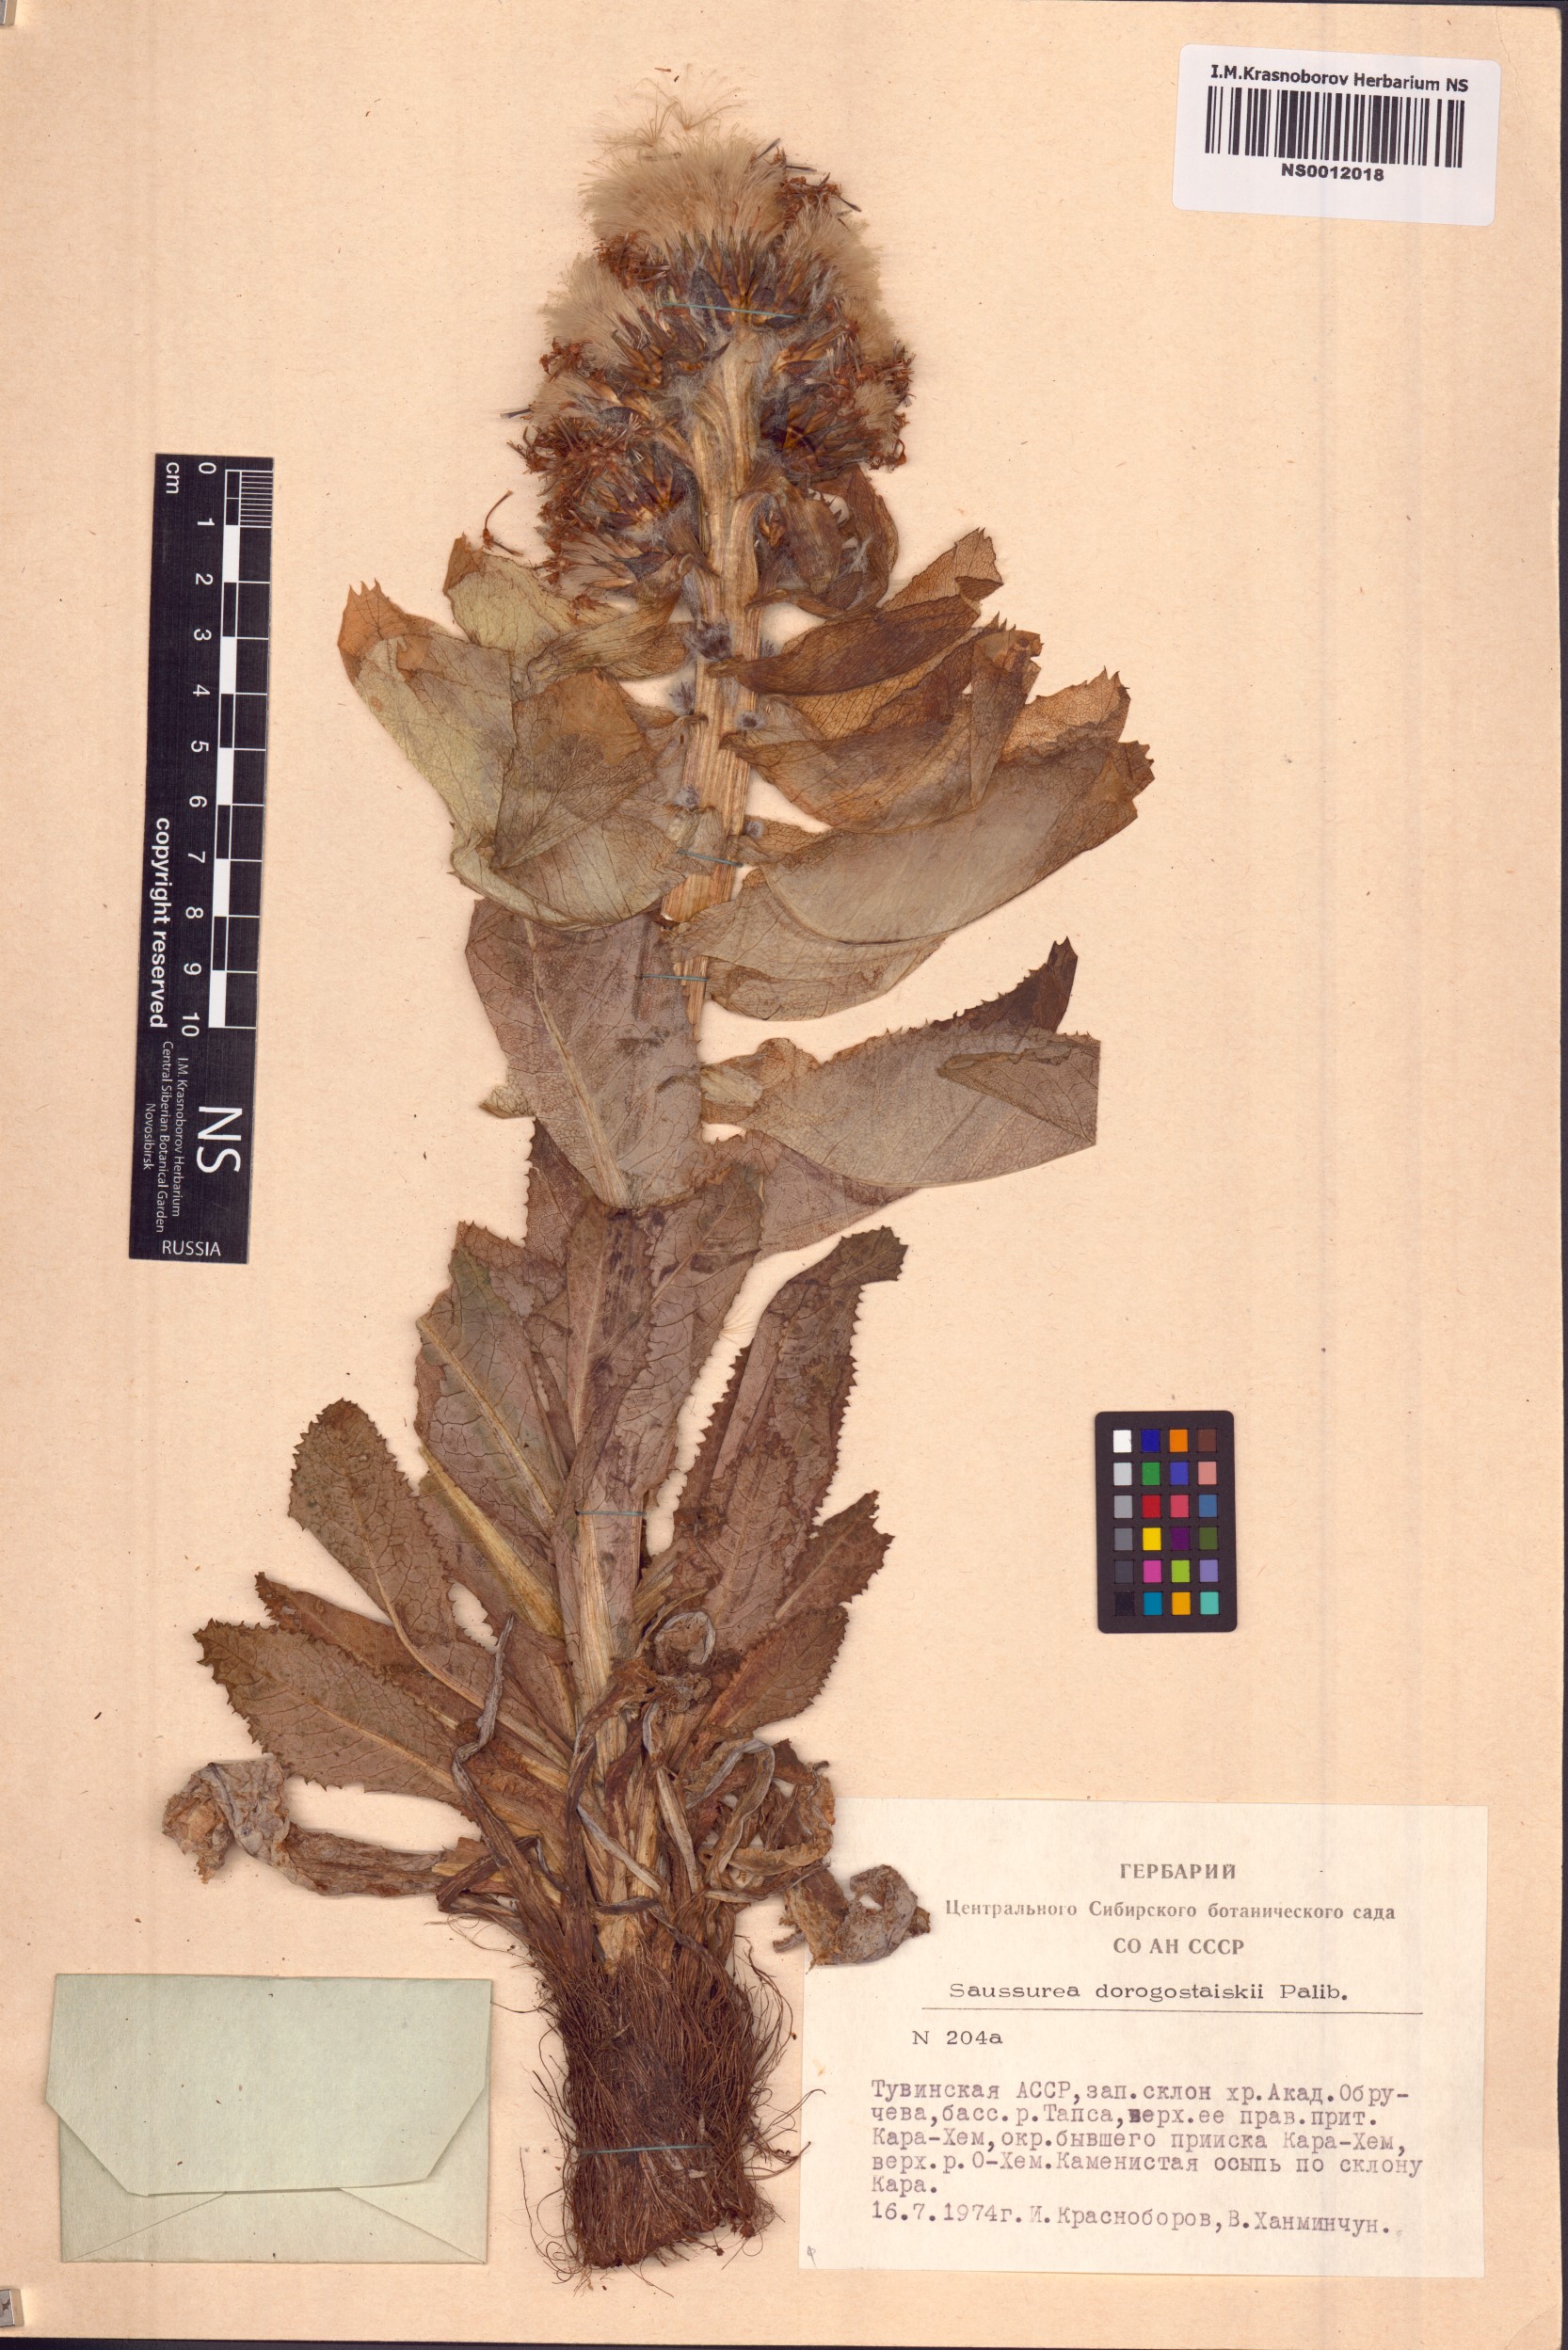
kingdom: Plantae
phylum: Tracheophyta
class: Magnoliopsida
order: Asterales
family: Asteraceae
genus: Saussurea
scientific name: Saussurea involucrata
